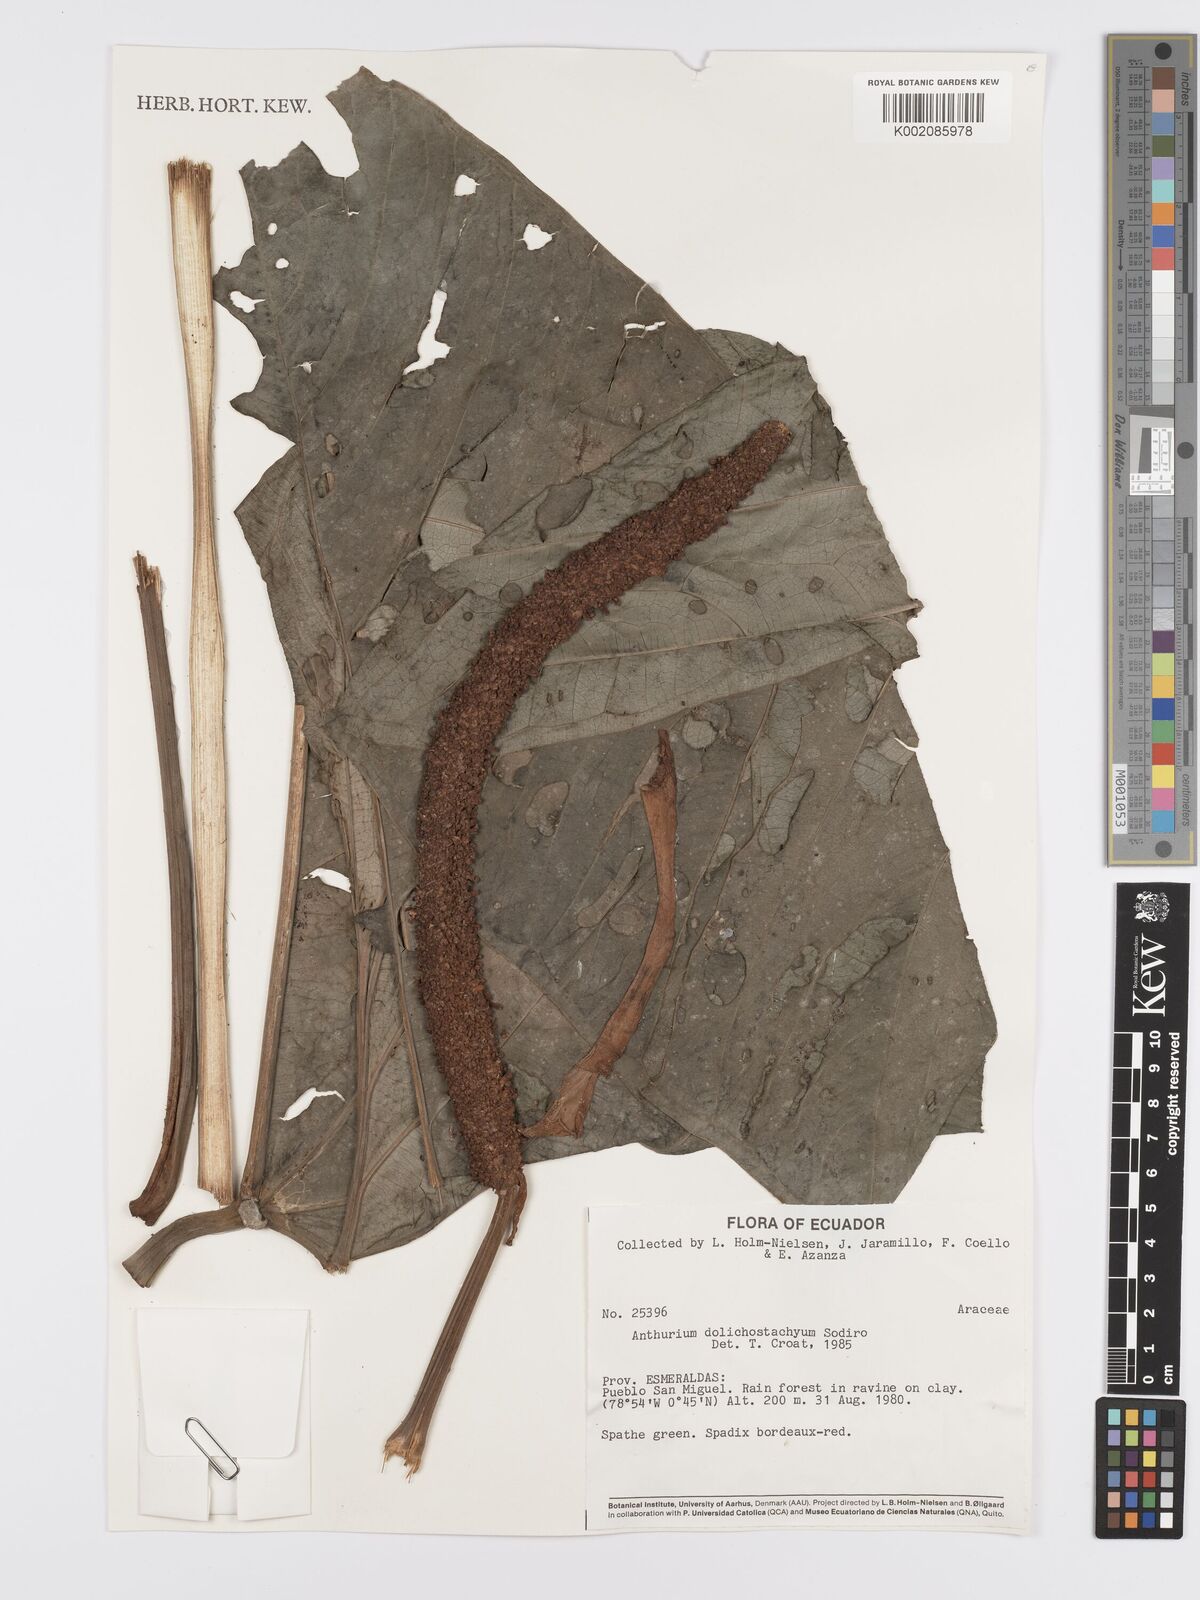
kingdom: Plantae
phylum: Tracheophyta
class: Liliopsida
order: Alismatales
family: Araceae
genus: Anthurium
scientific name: Anthurium dolichostachyum
